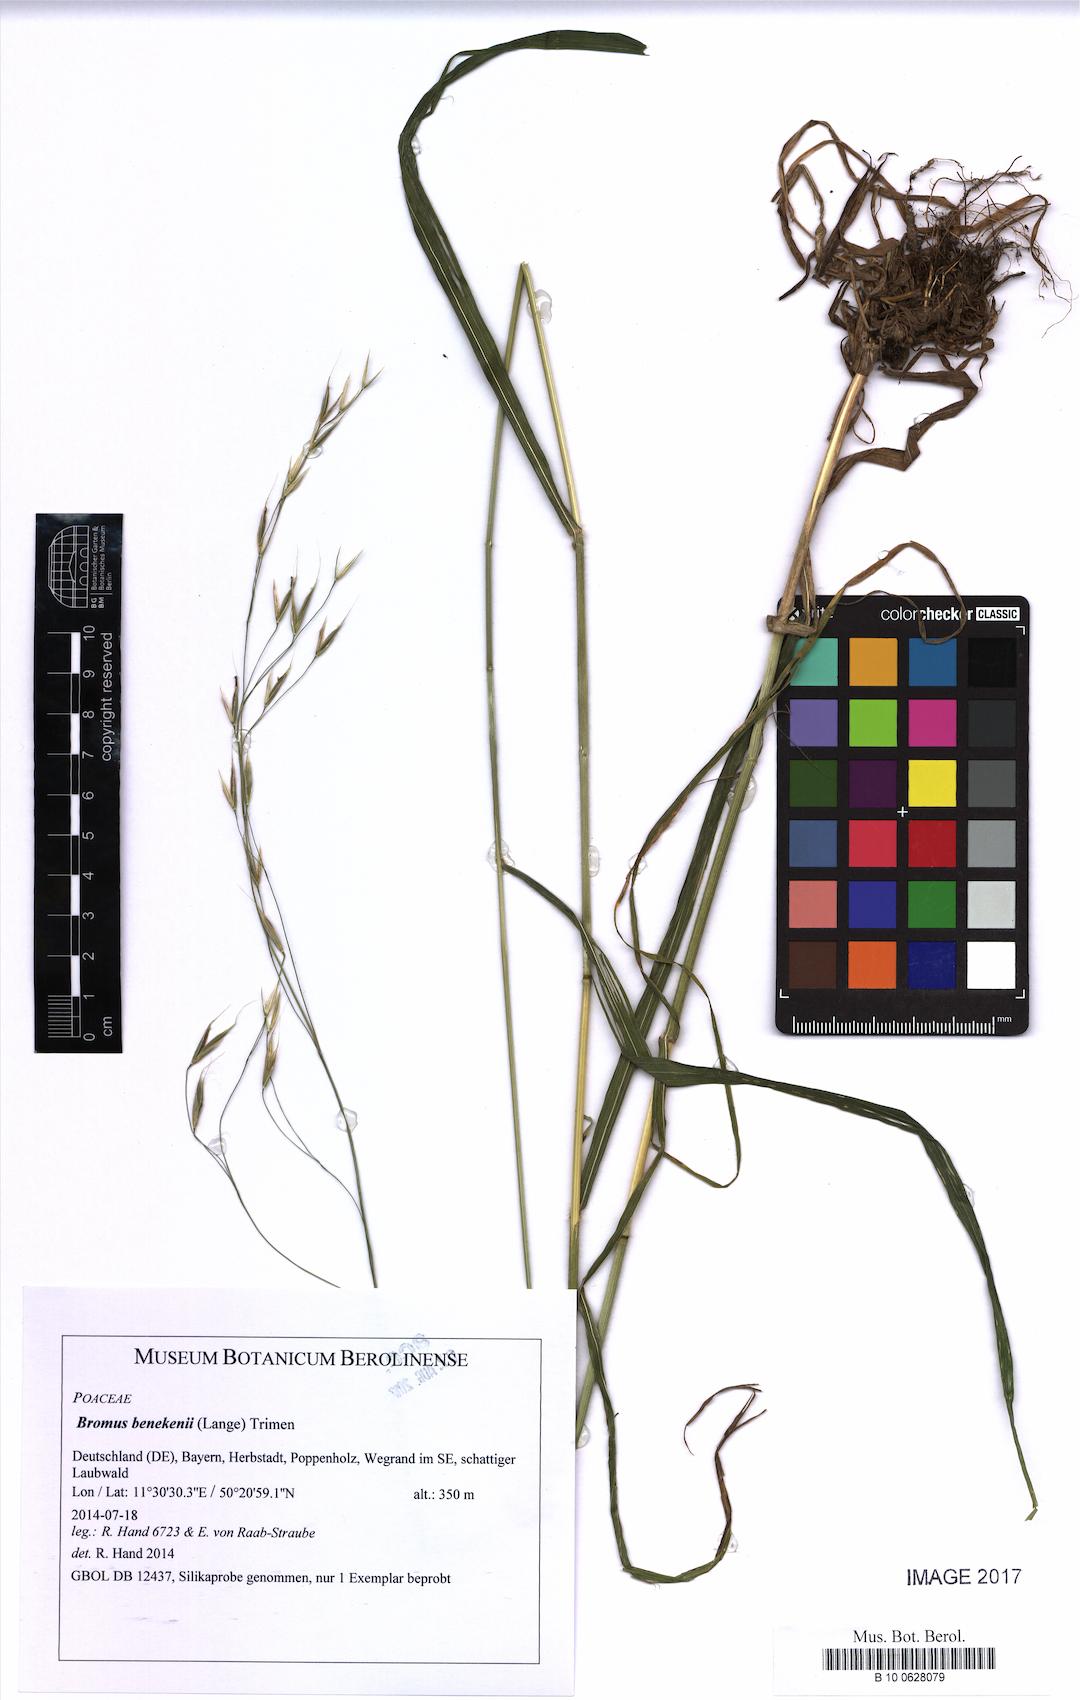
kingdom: Plantae
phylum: Tracheophyta
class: Liliopsida
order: Poales
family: Poaceae
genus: Bromus
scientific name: Bromus benekenii
